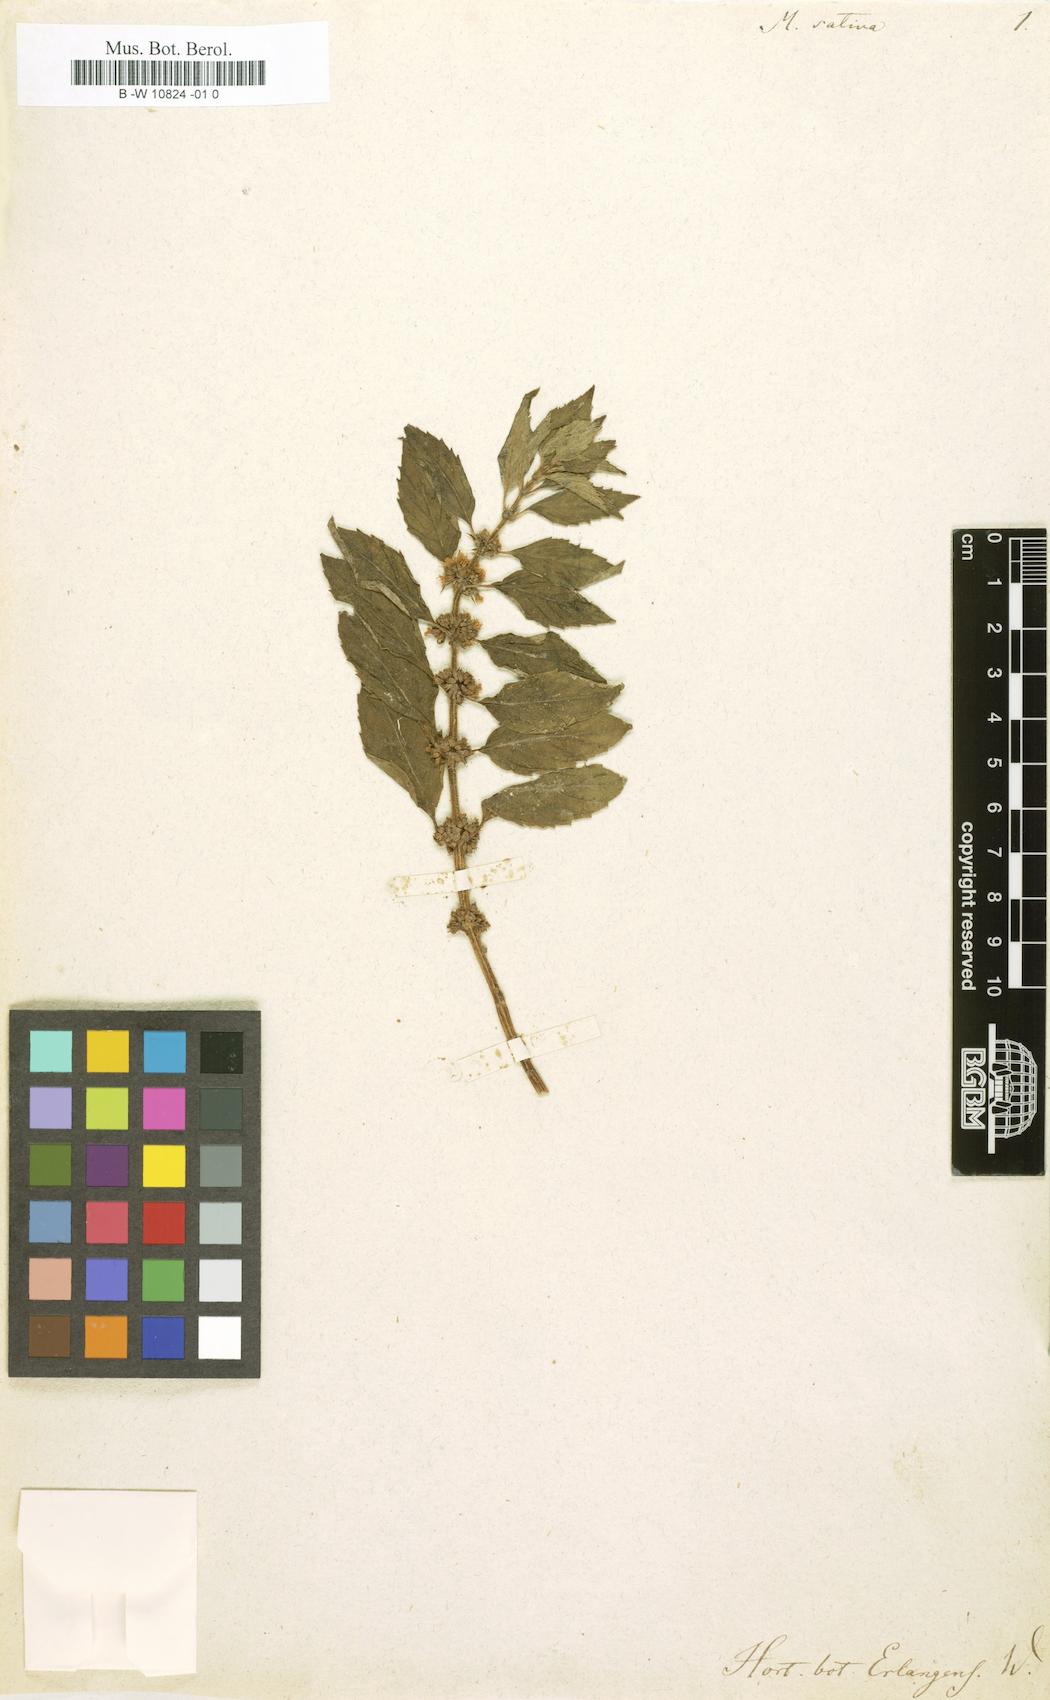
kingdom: Plantae
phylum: Tracheophyta
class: Magnoliopsida
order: Lamiales
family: Lamiaceae
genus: Mentha
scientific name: Mentha
